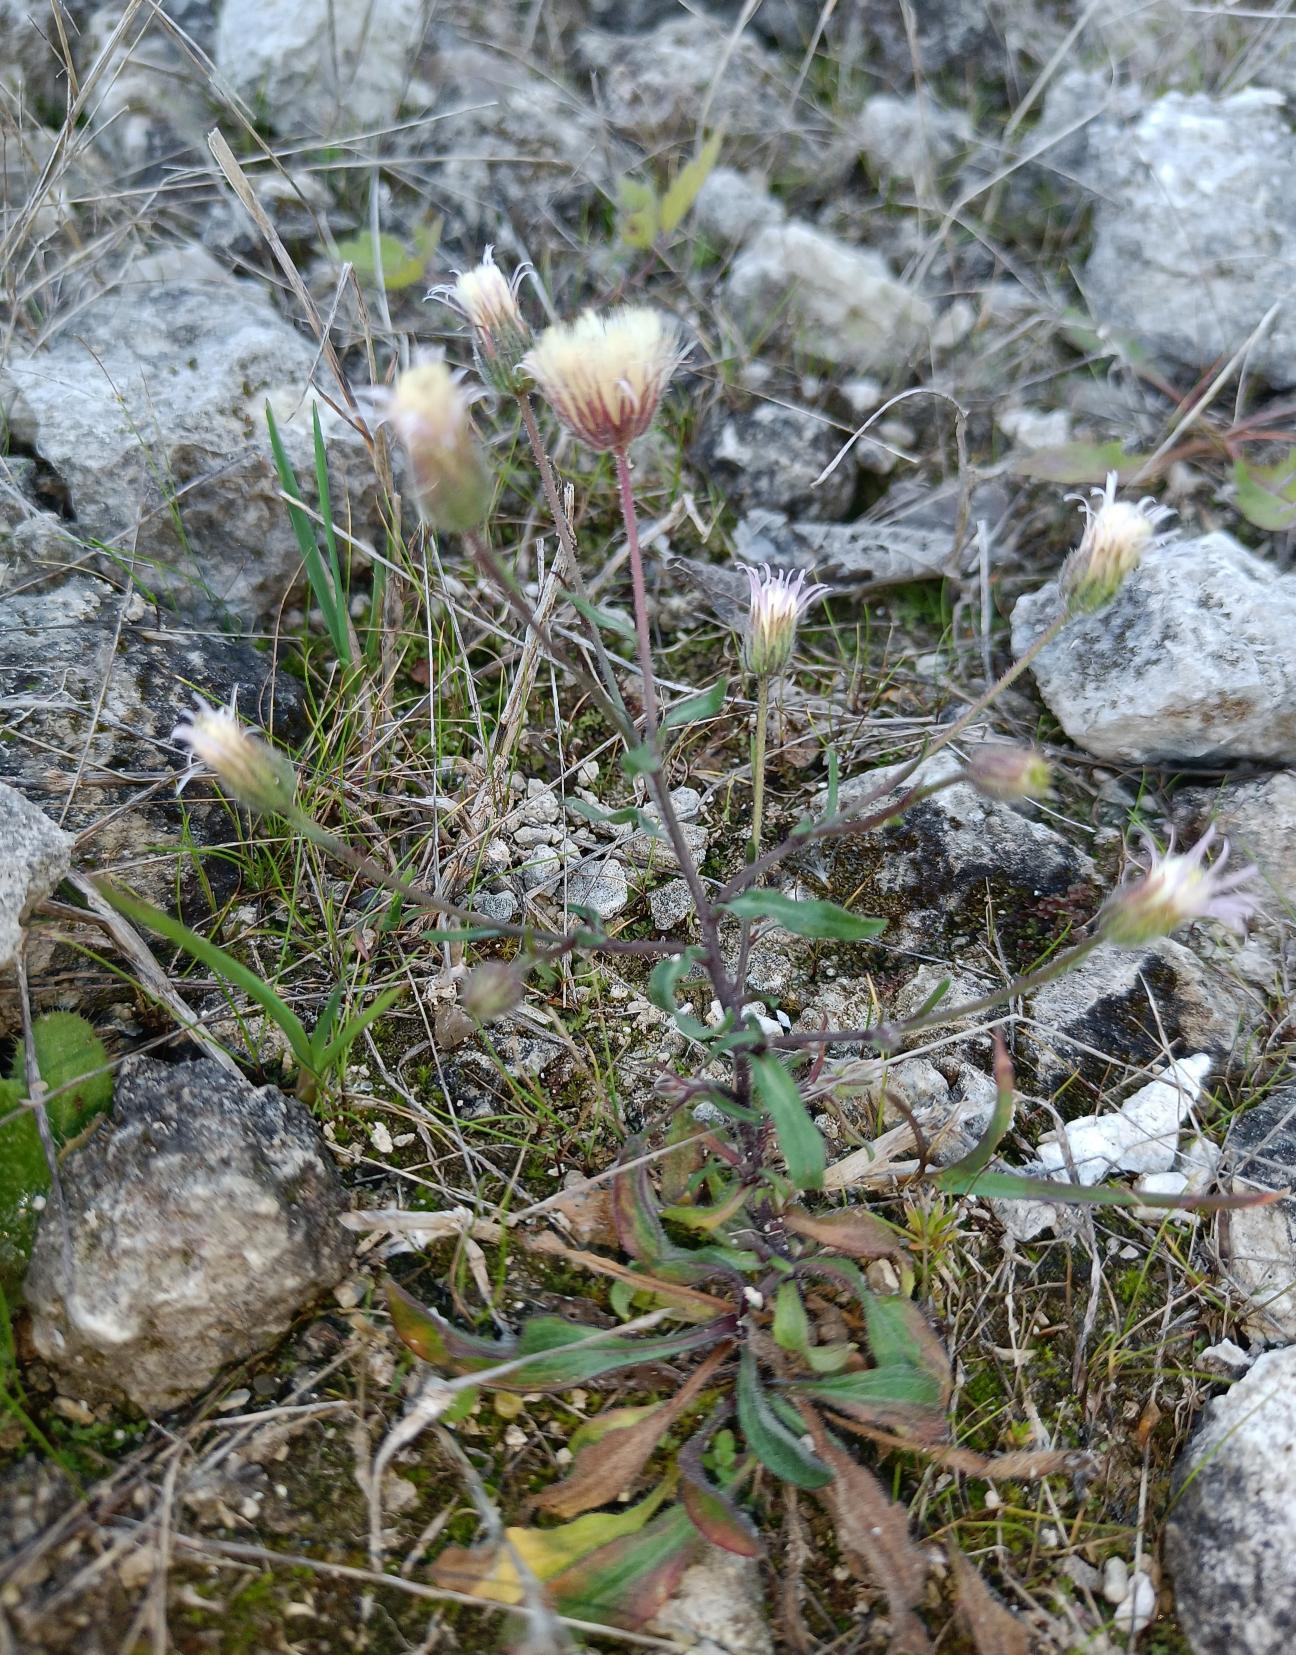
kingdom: Plantae
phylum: Tracheophyta
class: Magnoliopsida
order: Asterales
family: Asteraceae
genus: Erigeron
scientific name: Erigeron muralis
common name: Vreden bakkestjerne
